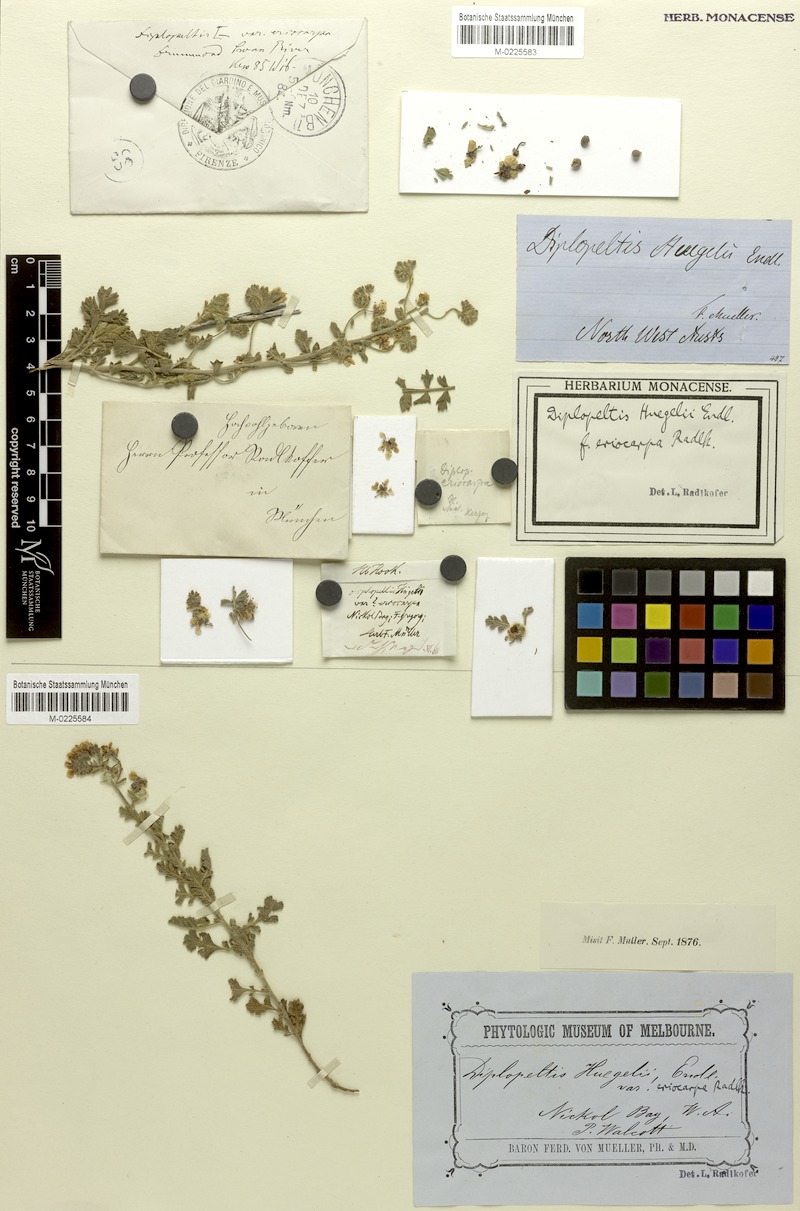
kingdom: Plantae
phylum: Tracheophyta
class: Magnoliopsida
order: Sapindales
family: Sapindaceae
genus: Diplopeltis
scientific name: Diplopeltis eriocarpa
